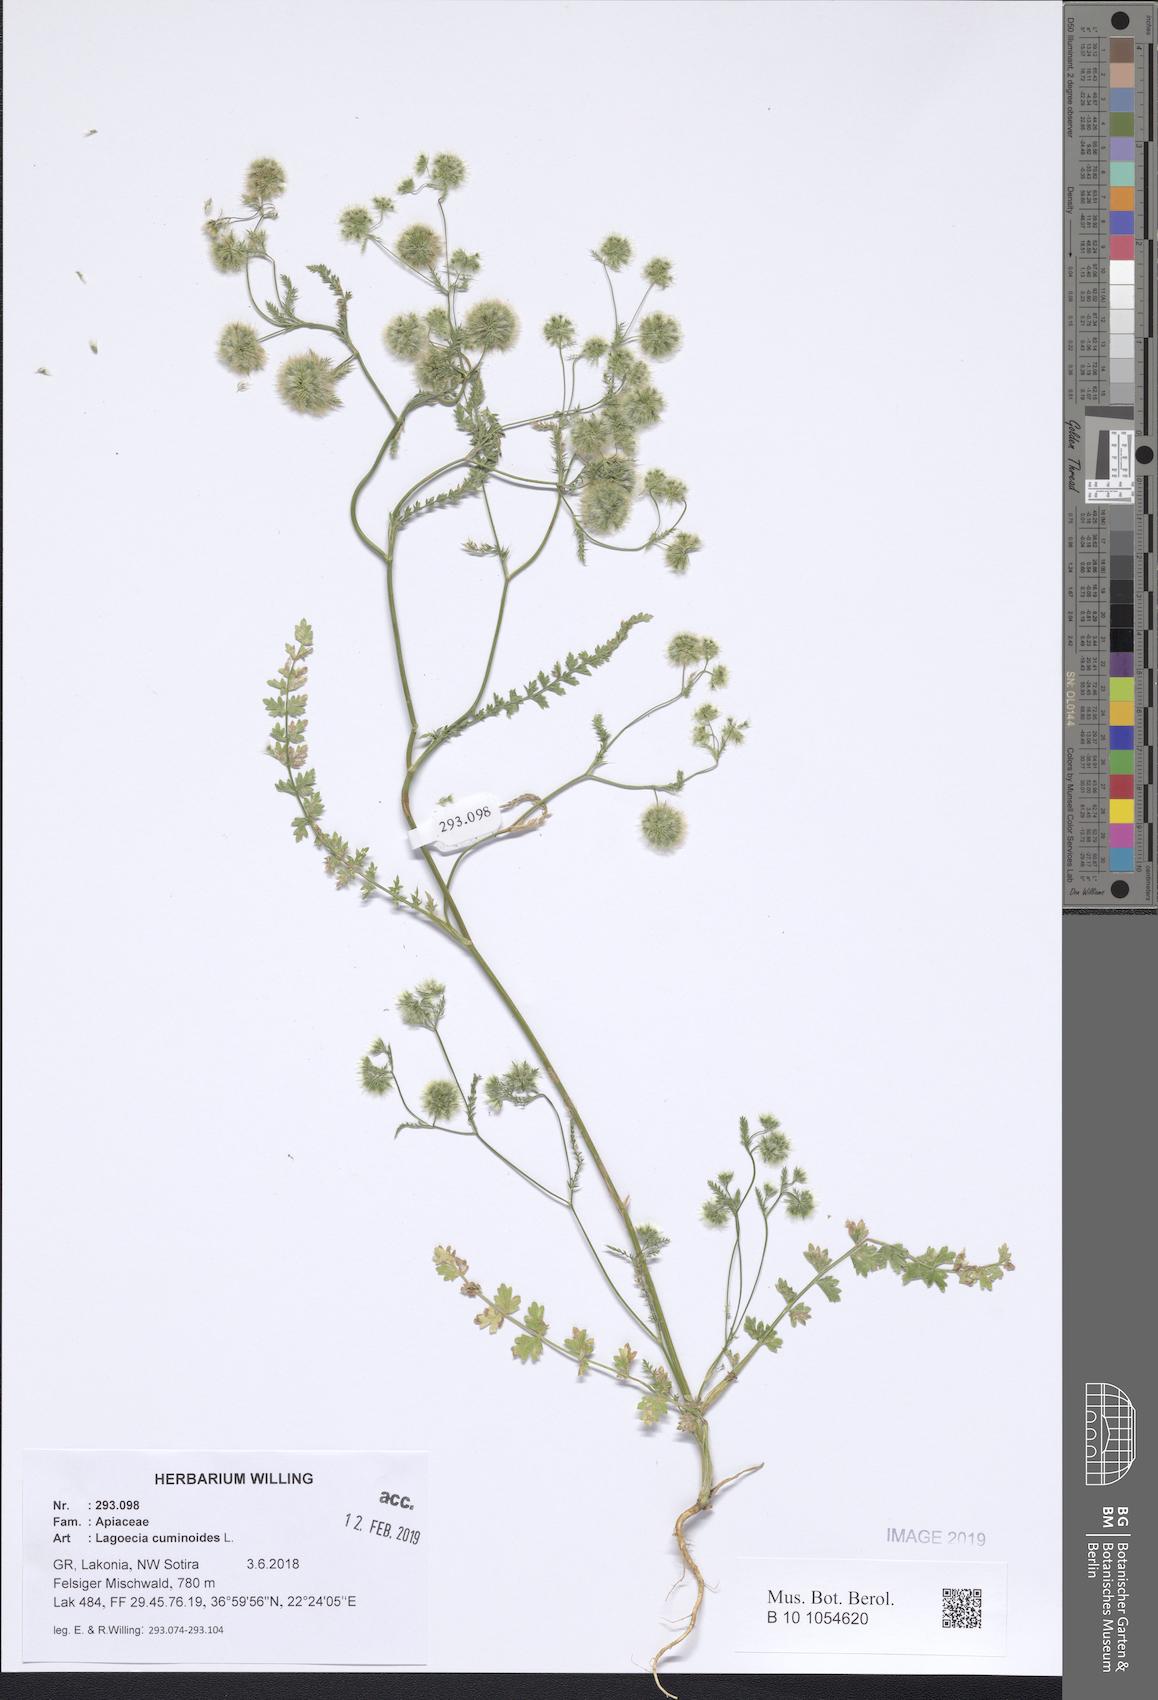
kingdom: Plantae
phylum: Tracheophyta
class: Magnoliopsida
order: Apiales
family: Apiaceae
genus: Lagoecia
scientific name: Lagoecia cuminoides
